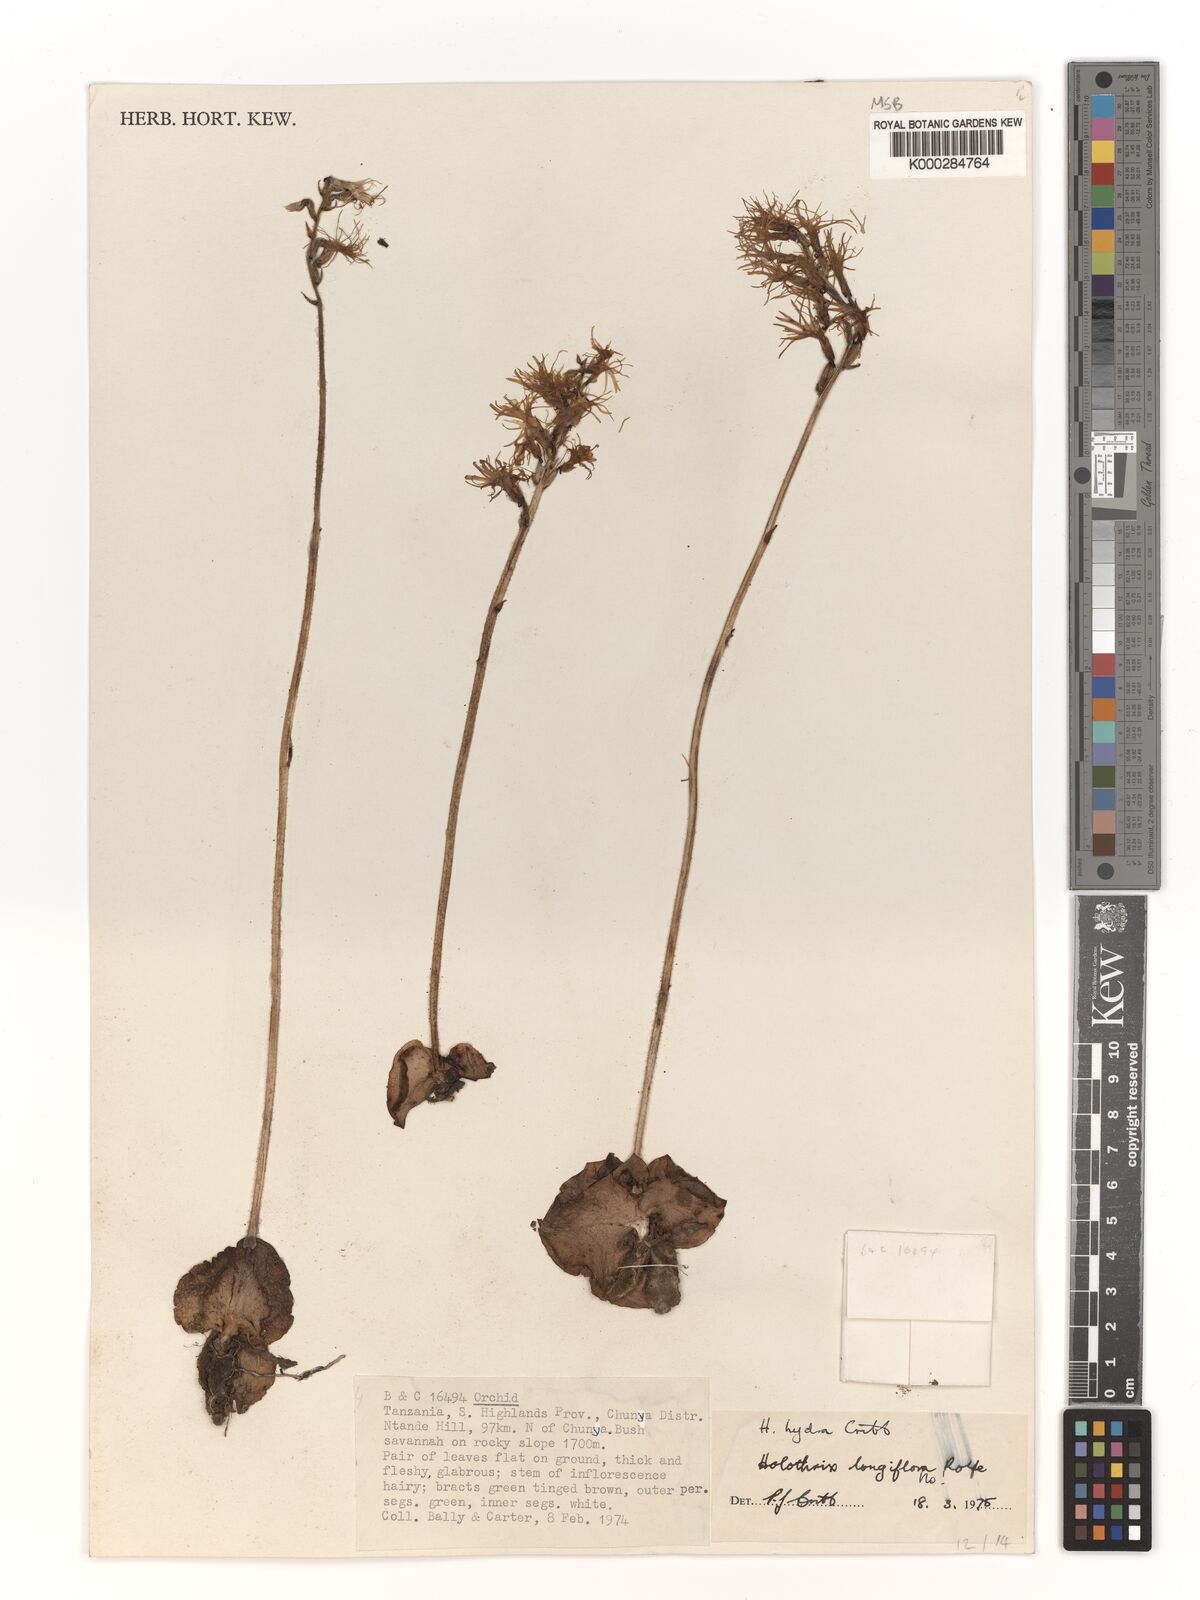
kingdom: Plantae
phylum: Tracheophyta
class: Liliopsida
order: Asparagales
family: Orchidaceae
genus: Holothrix
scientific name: Holothrix hydra
